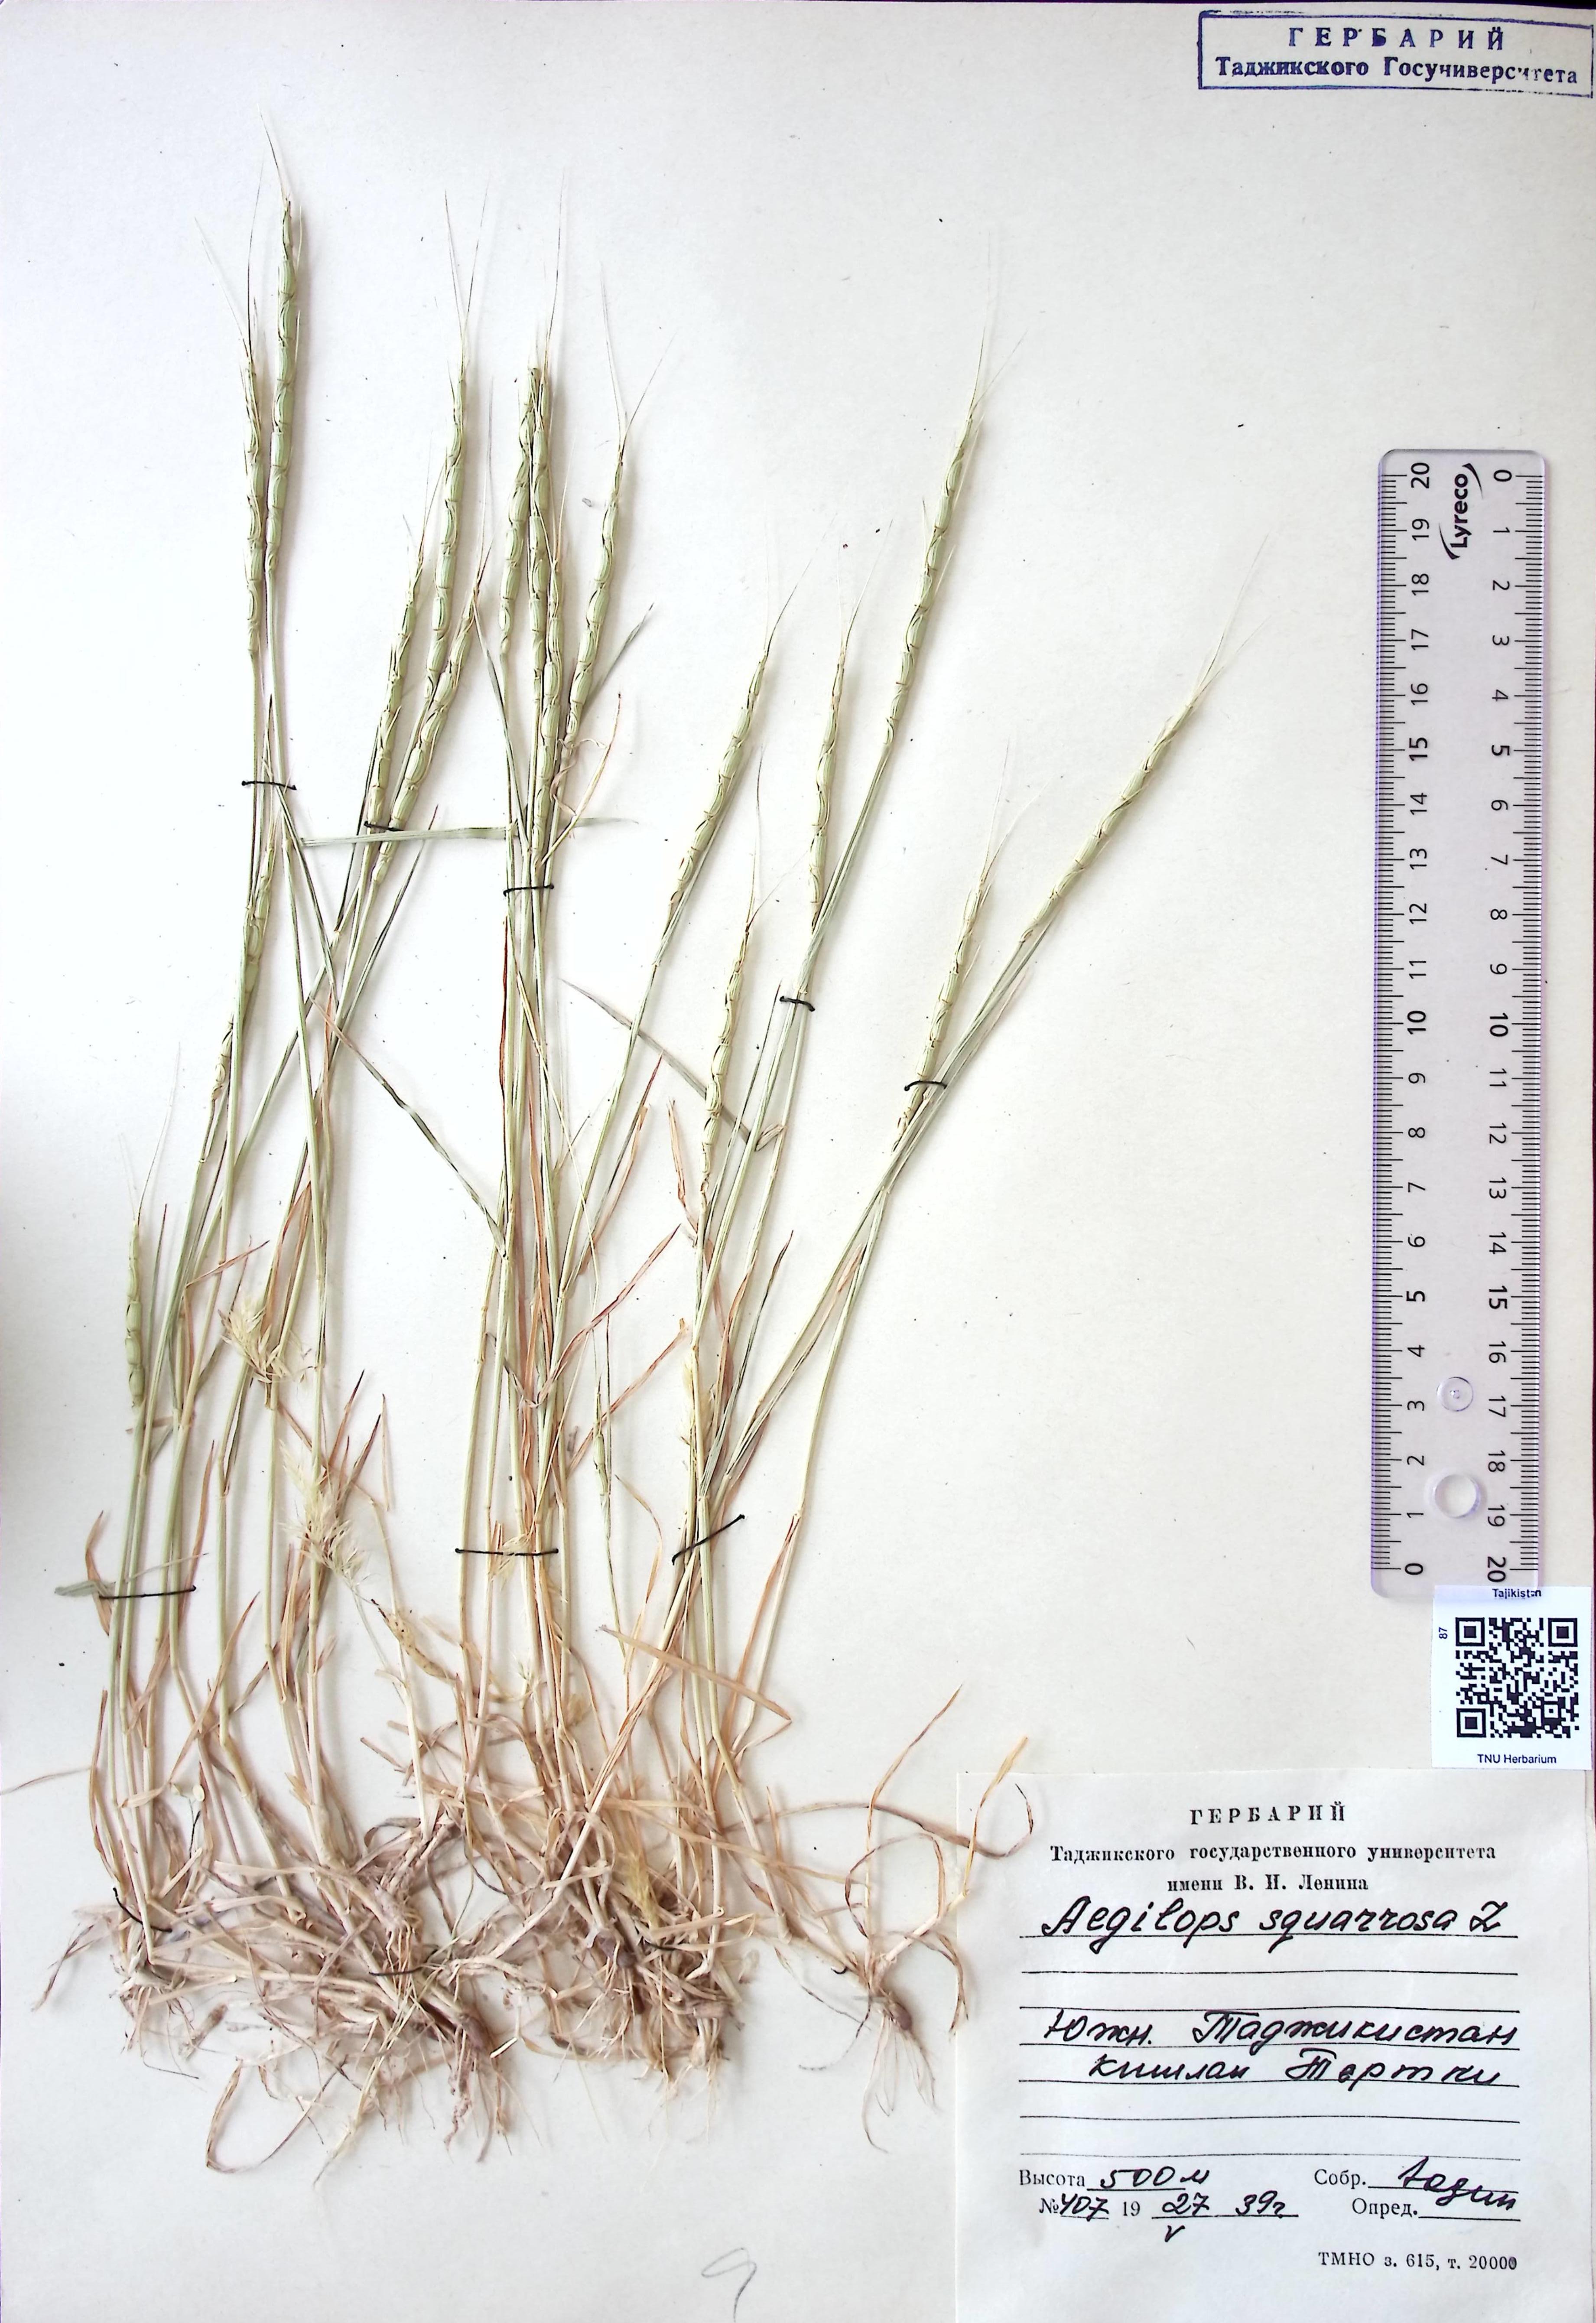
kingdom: Plantae
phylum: Tracheophyta
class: Liliopsida
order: Poales
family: Poaceae
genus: Aegilops
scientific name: Aegilops squarrosa
